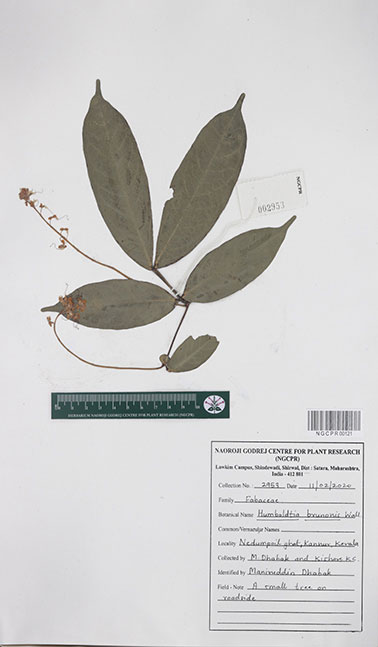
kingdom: Plantae
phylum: Tracheophyta
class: Magnoliopsida
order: Fabales
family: Fabaceae
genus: Humboldtia
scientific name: Humboldtia brunonis
